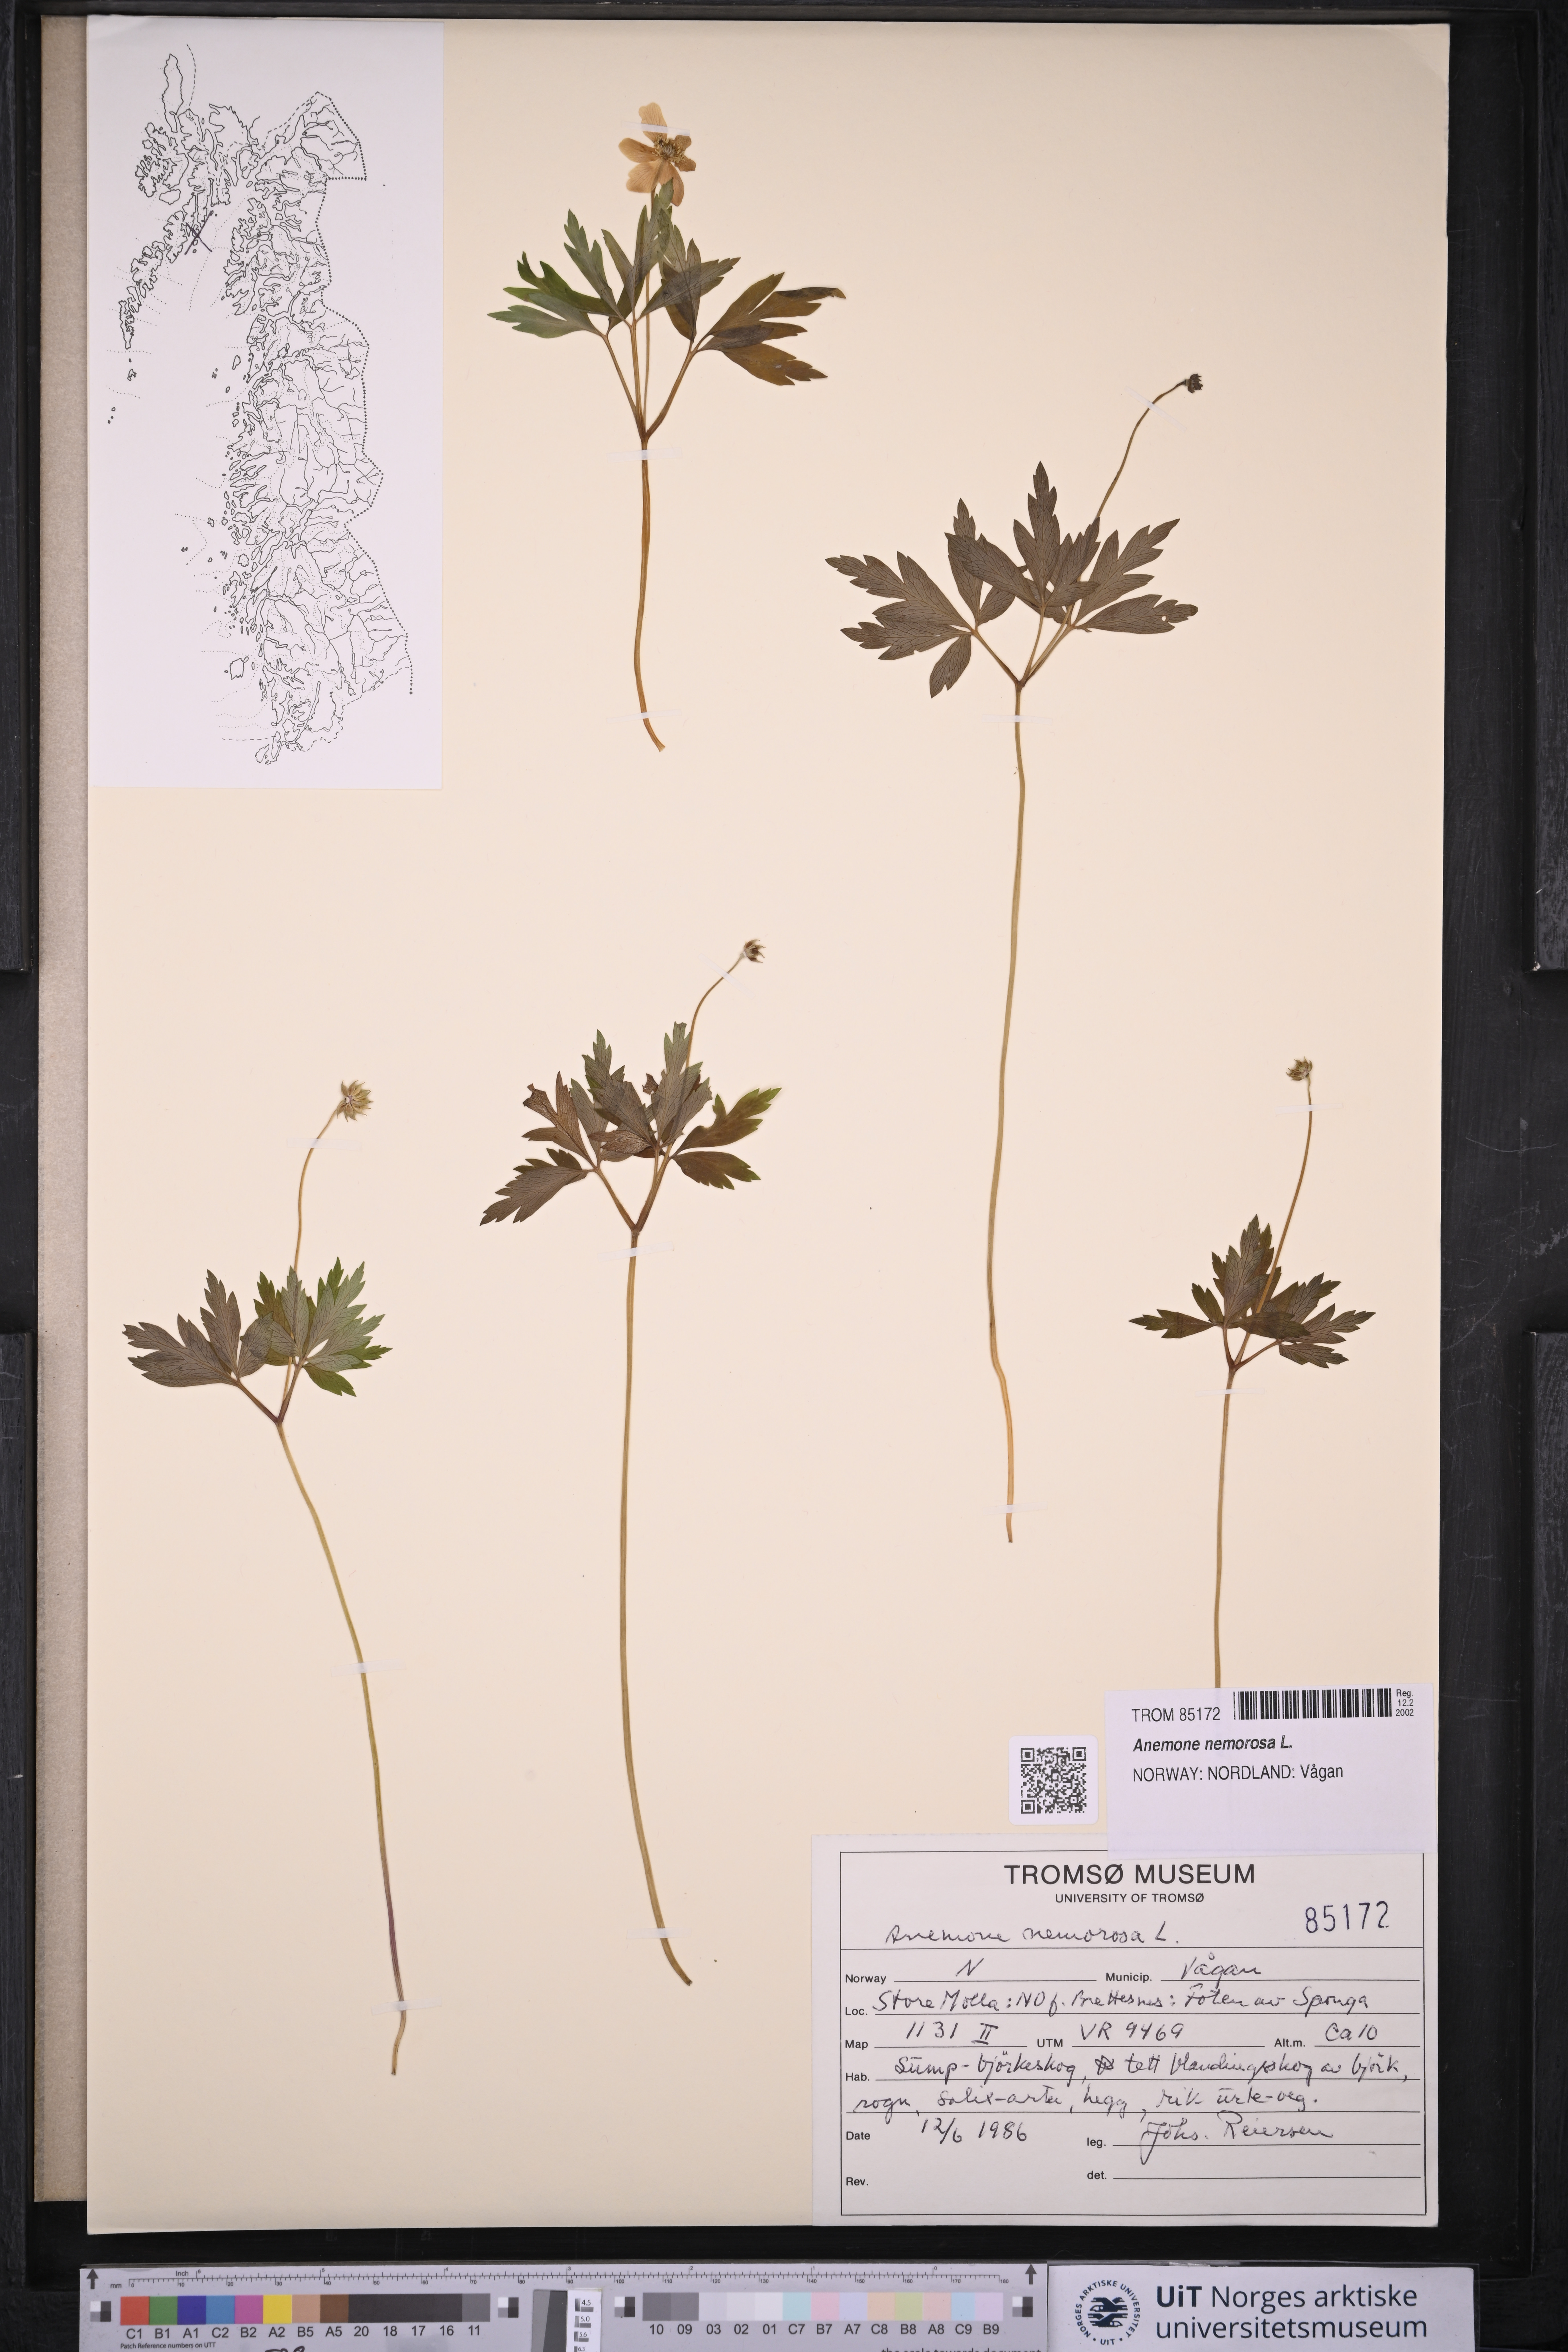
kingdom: Plantae
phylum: Tracheophyta
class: Magnoliopsida
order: Ranunculales
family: Ranunculaceae
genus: Anemone
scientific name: Anemone nemorosa
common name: Wood anemone
